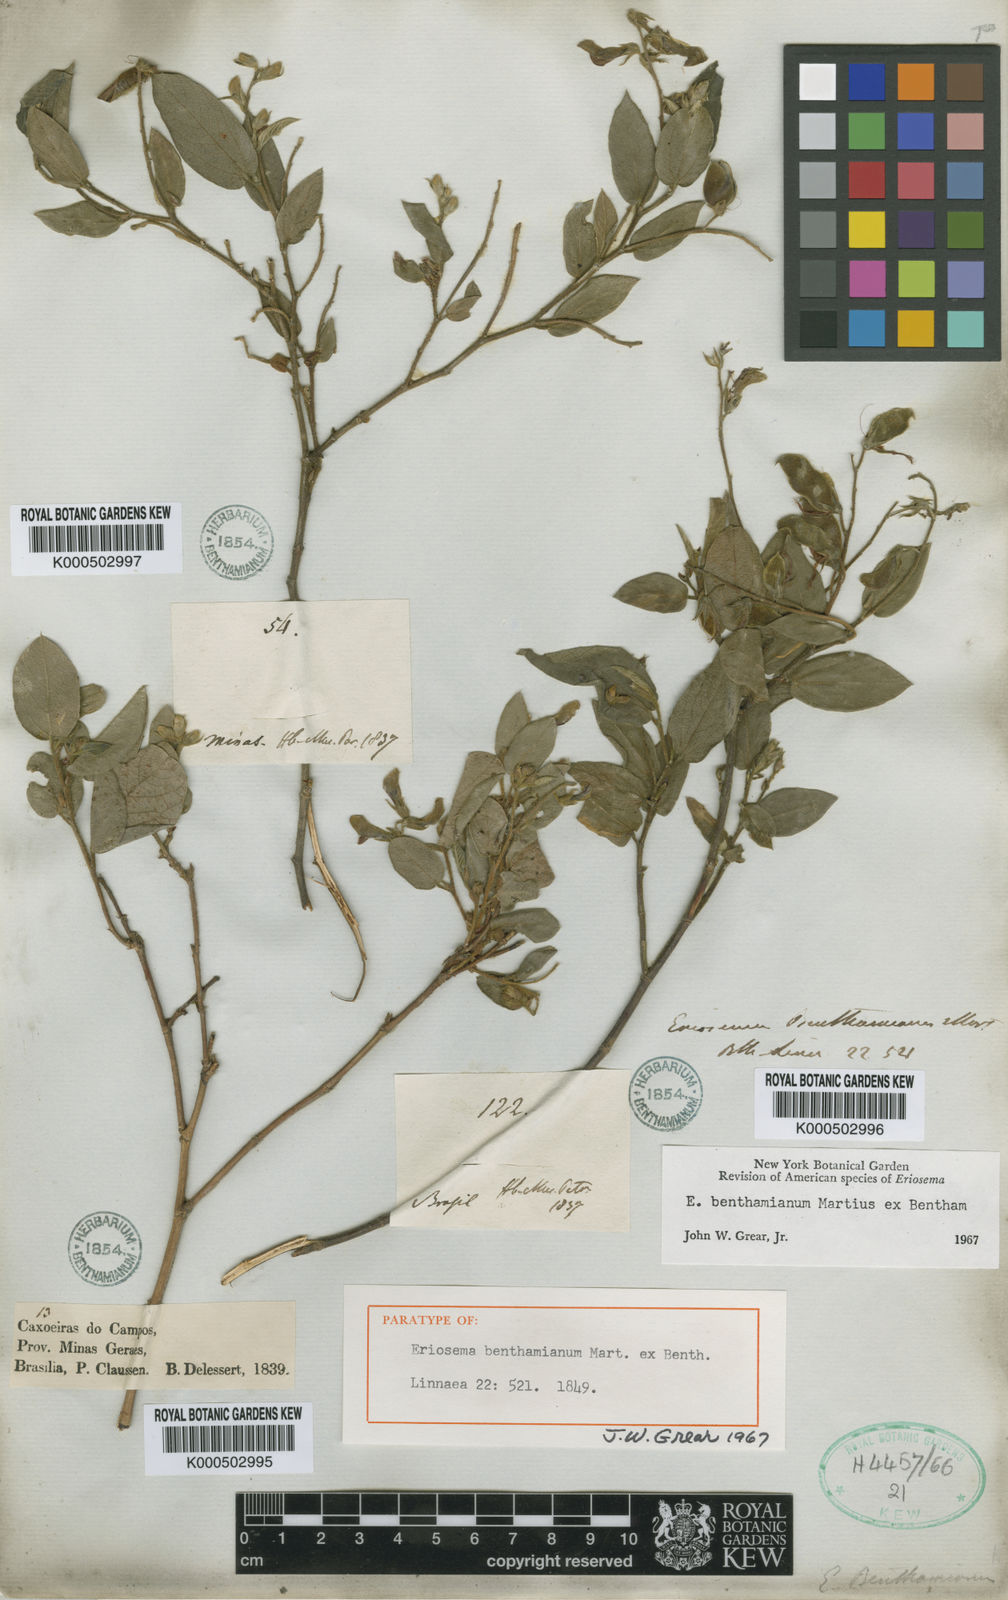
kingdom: Plantae
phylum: Tracheophyta
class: Magnoliopsida
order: Fabales
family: Fabaceae
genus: Eriosema
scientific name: Eriosema benthamianum
